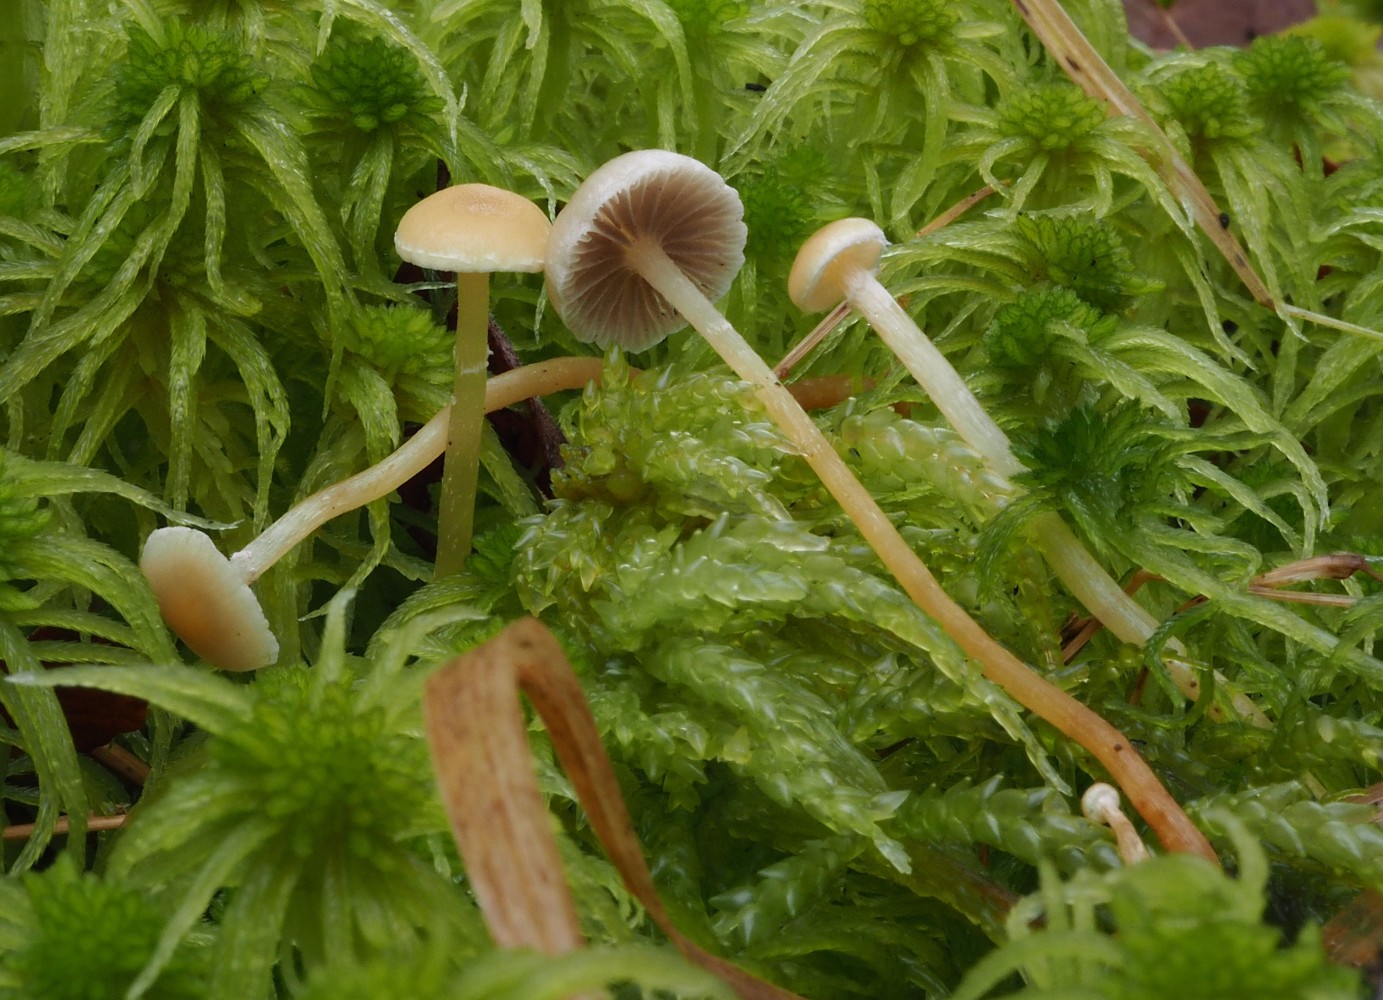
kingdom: Fungi
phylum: Basidiomycota
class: Agaricomycetes
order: Agaricales
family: Strophariaceae
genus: Hypholoma
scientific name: Hypholoma elongatum
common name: slank svovlhat
